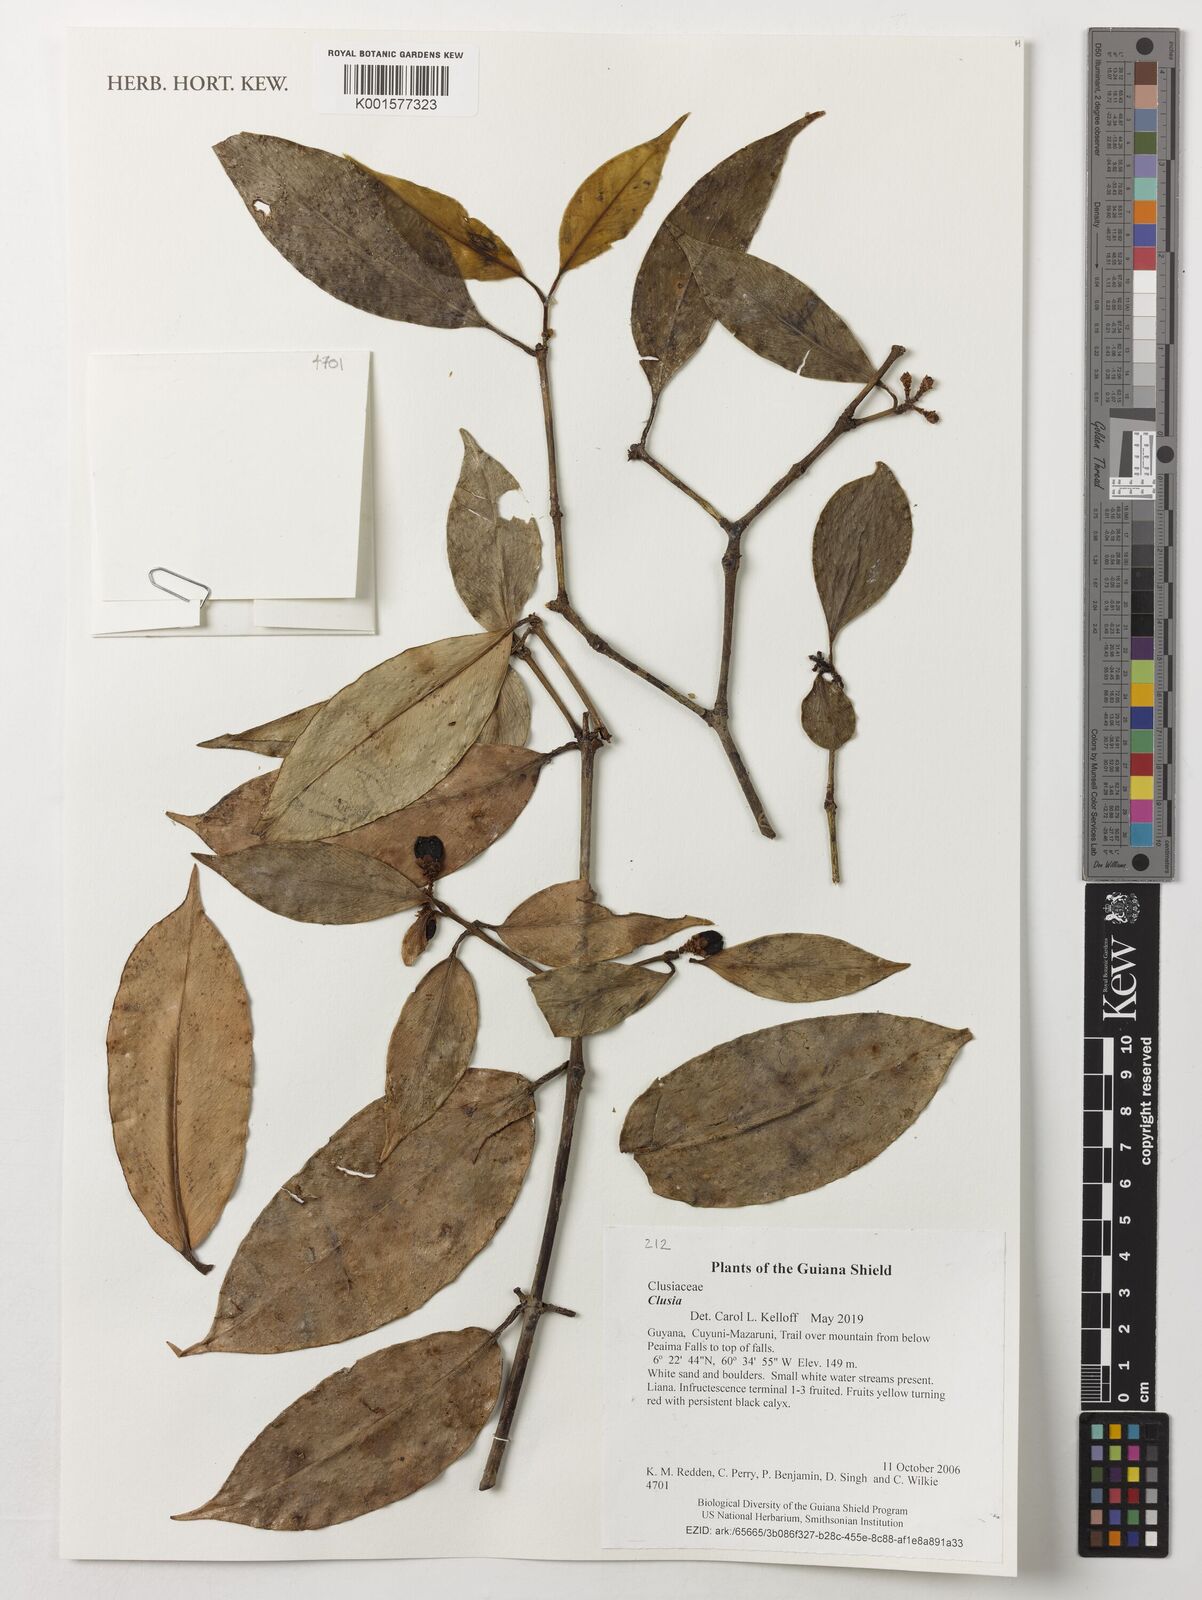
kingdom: Plantae
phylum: Tracheophyta
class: Magnoliopsida
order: Malpighiales
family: Clusiaceae
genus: Clusia
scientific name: Clusia
